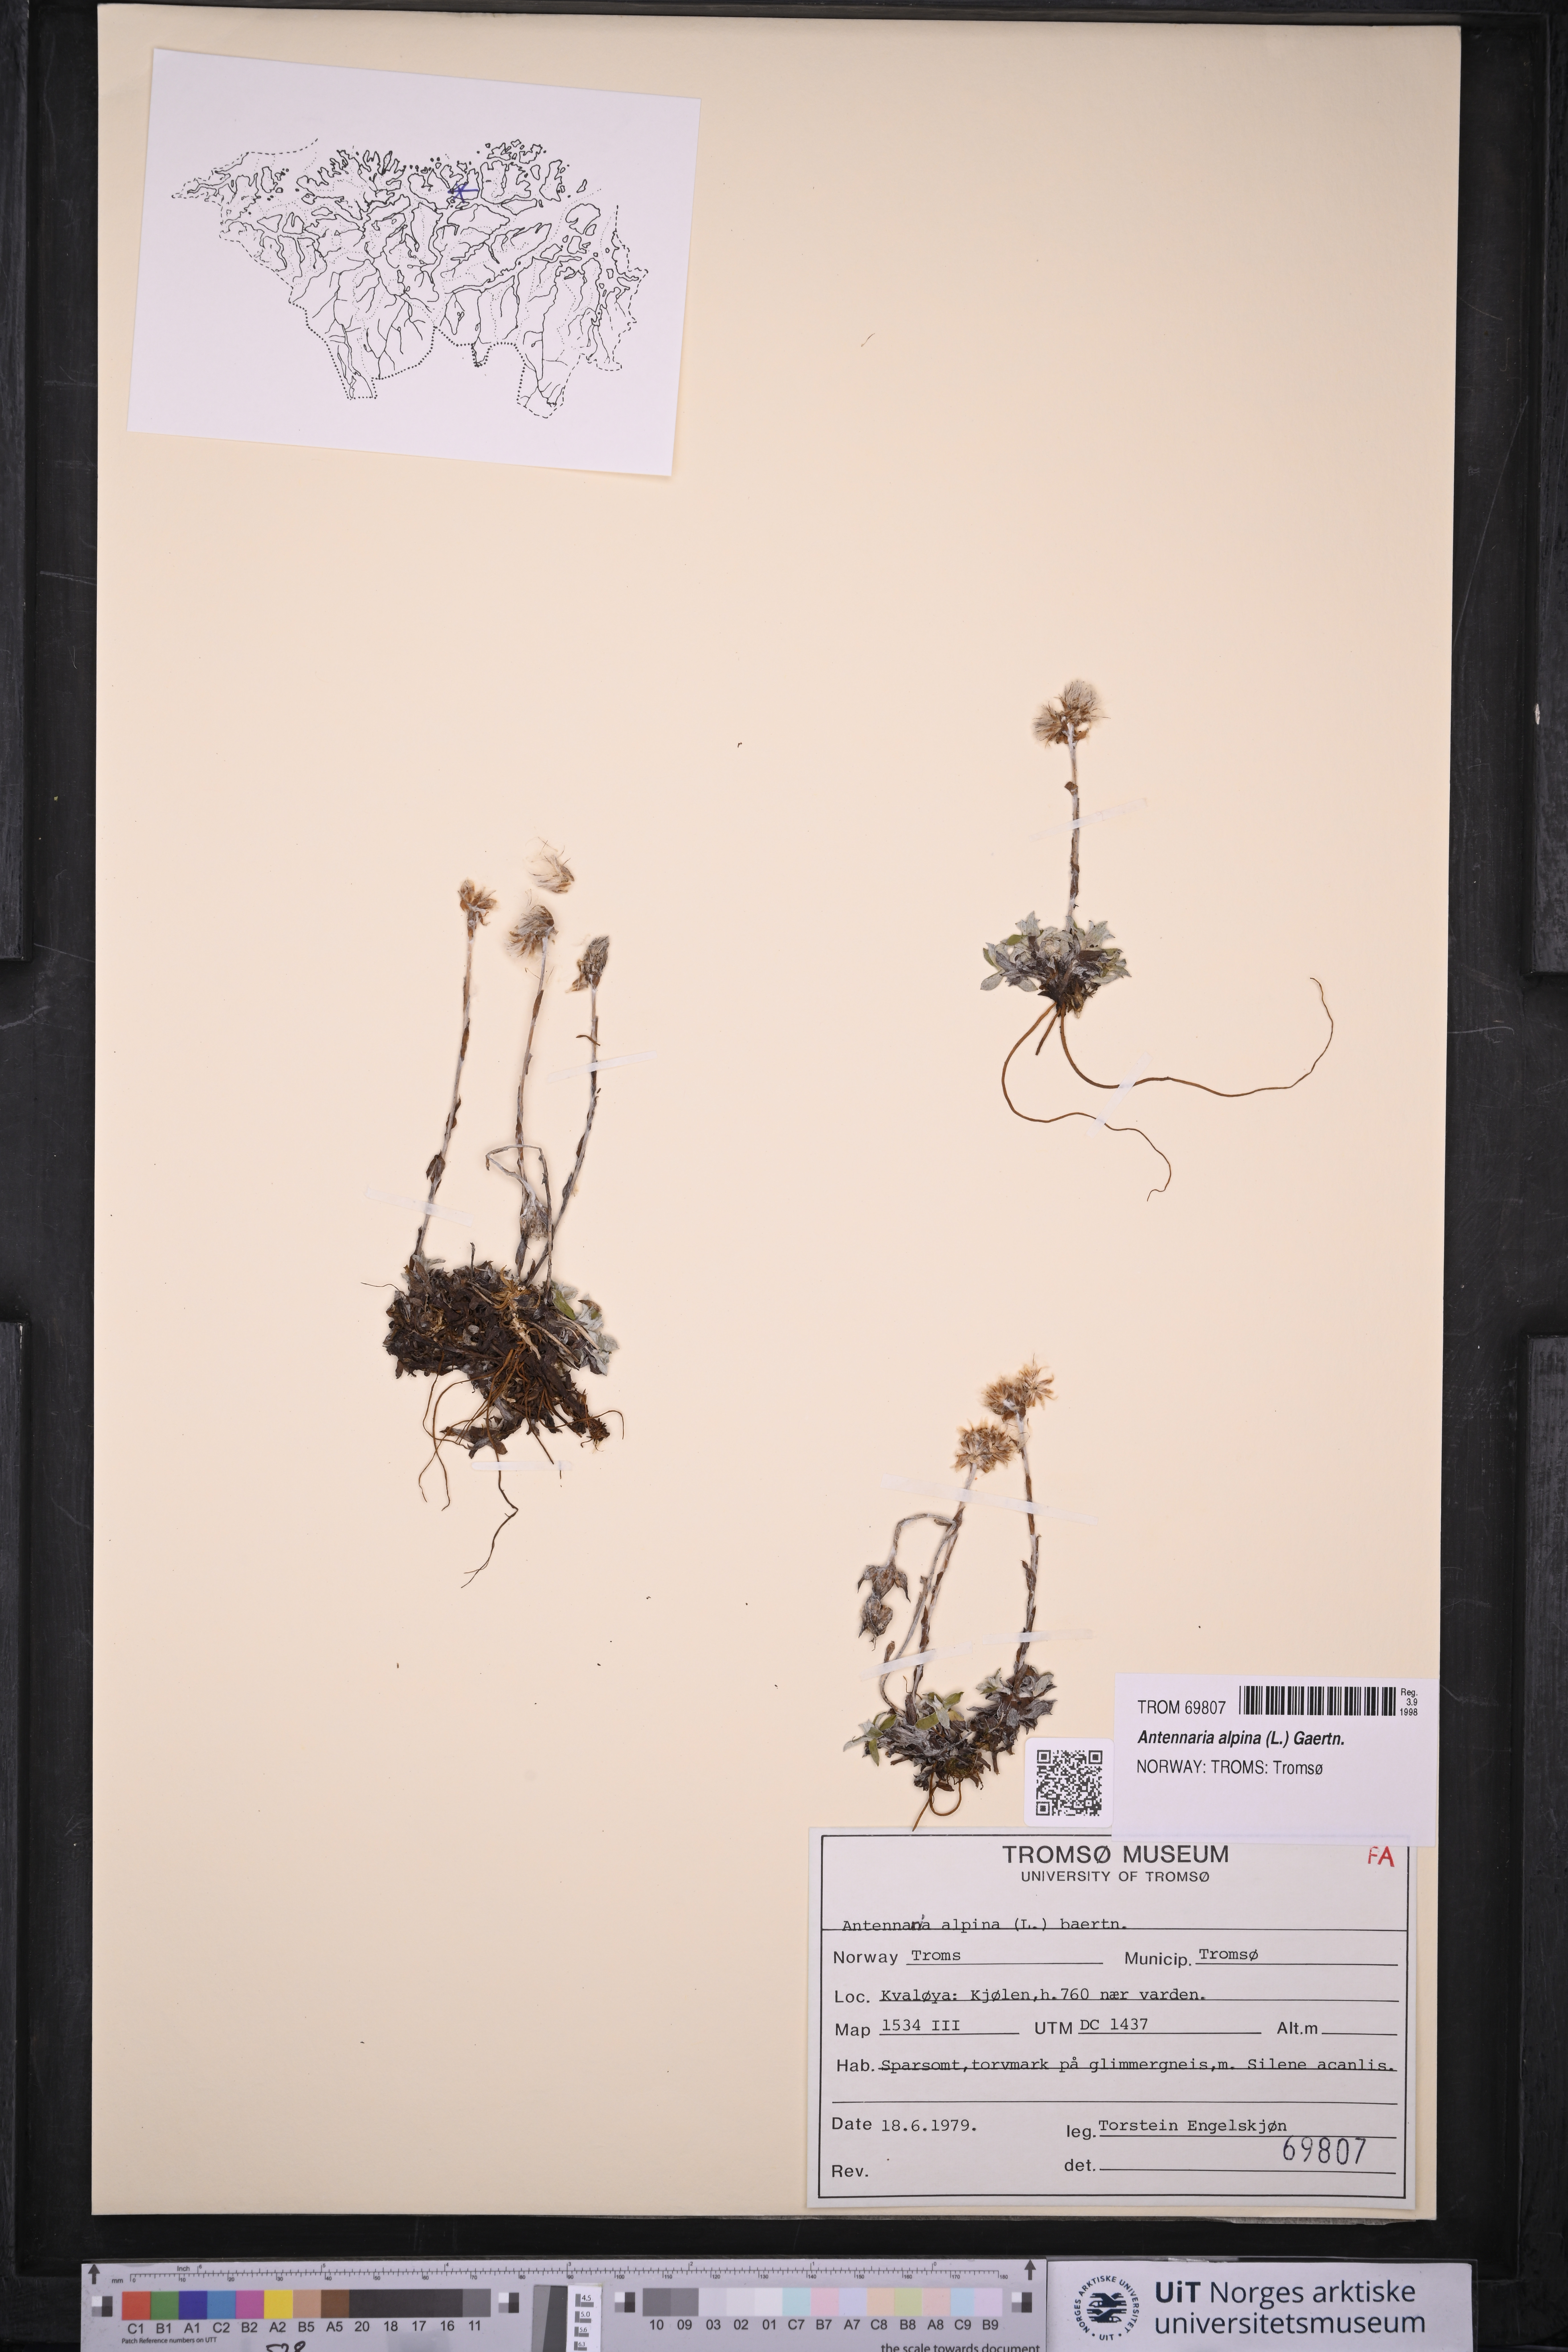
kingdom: Plantae
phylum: Tracheophyta
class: Magnoliopsida
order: Asterales
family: Asteraceae
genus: Antennaria
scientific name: Antennaria alpina
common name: Alpine pussytoes
